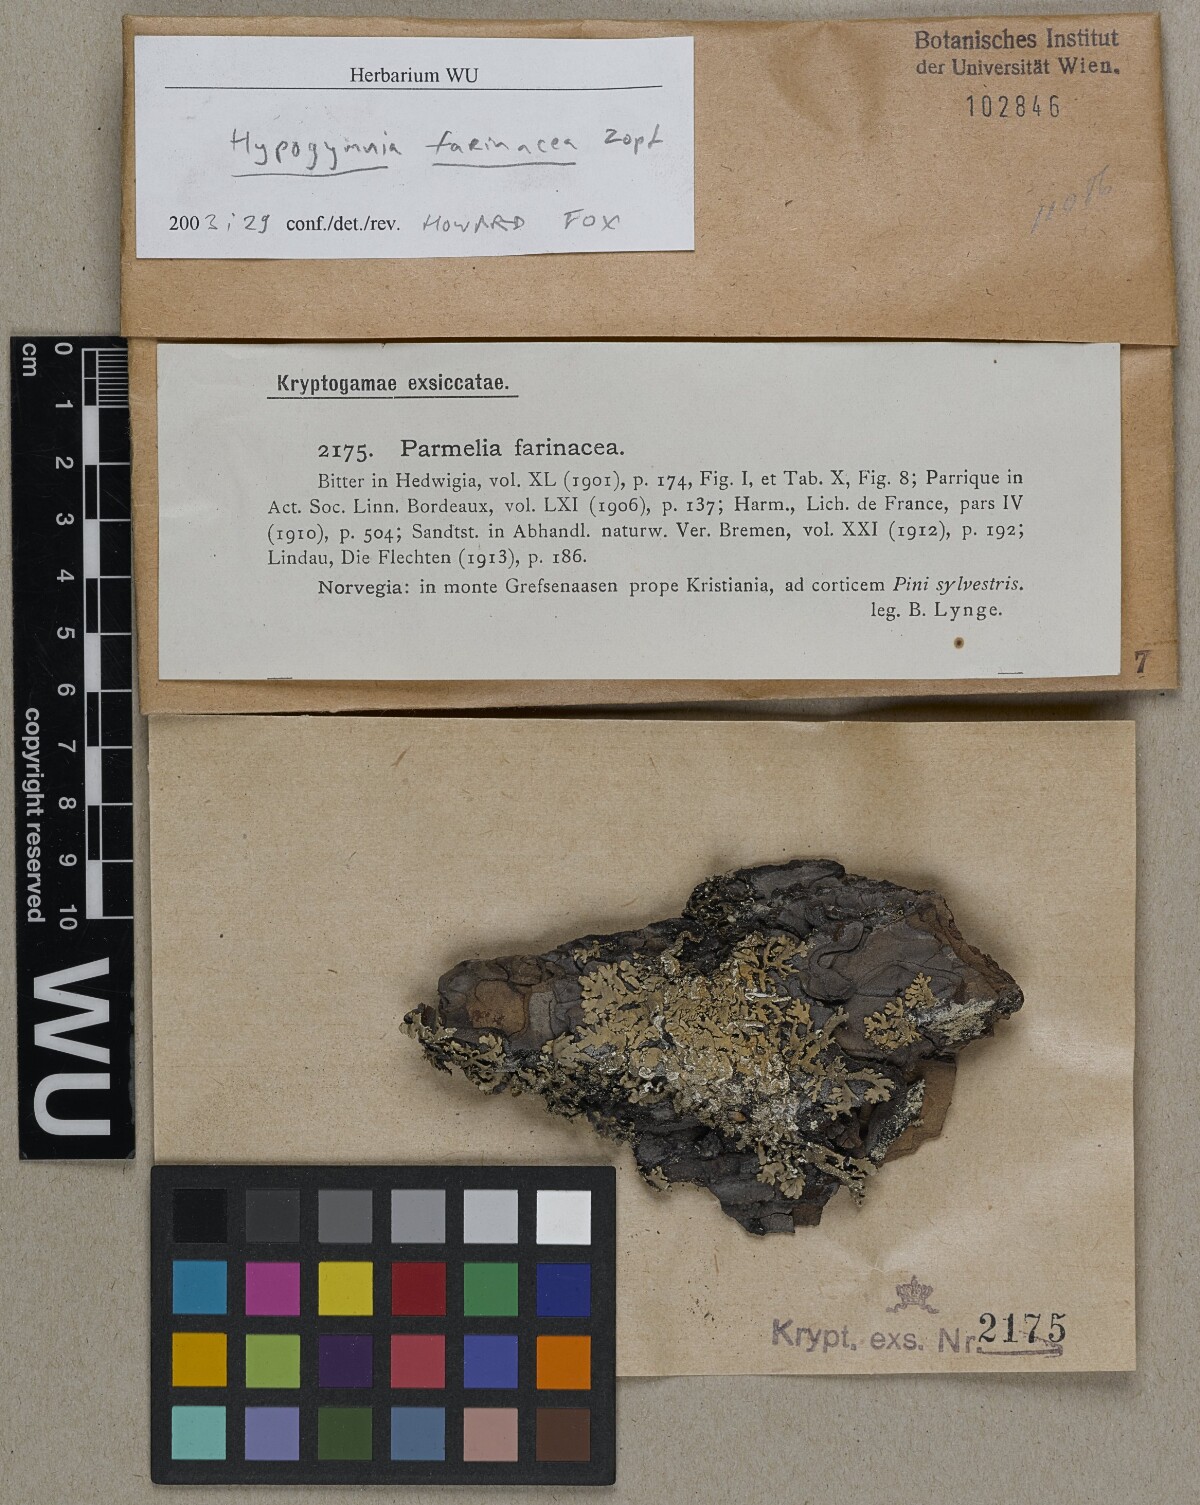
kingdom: Fungi
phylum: Ascomycota
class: Lecanoromycetes
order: Lecanorales
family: Parmeliaceae
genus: Hypogymnia
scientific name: Hypogymnia farinacea
